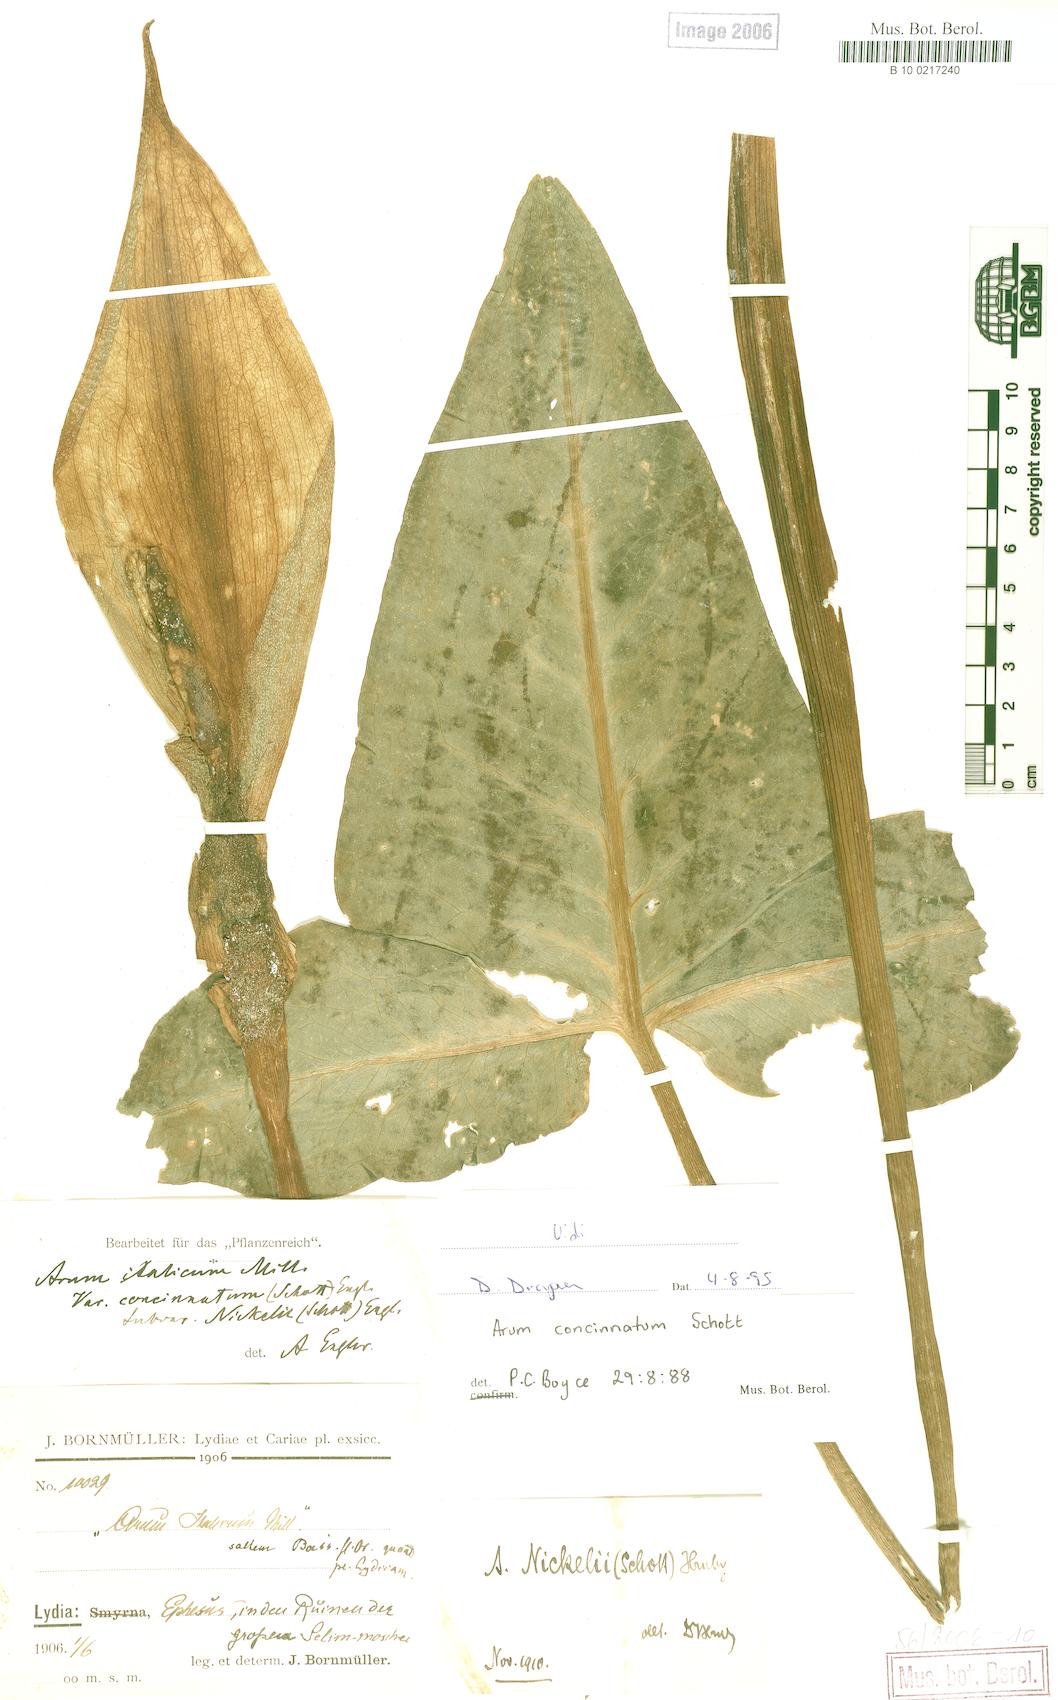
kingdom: Plantae
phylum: Tracheophyta
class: Liliopsida
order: Alismatales
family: Araceae
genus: Arum
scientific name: Arum concinnatum
